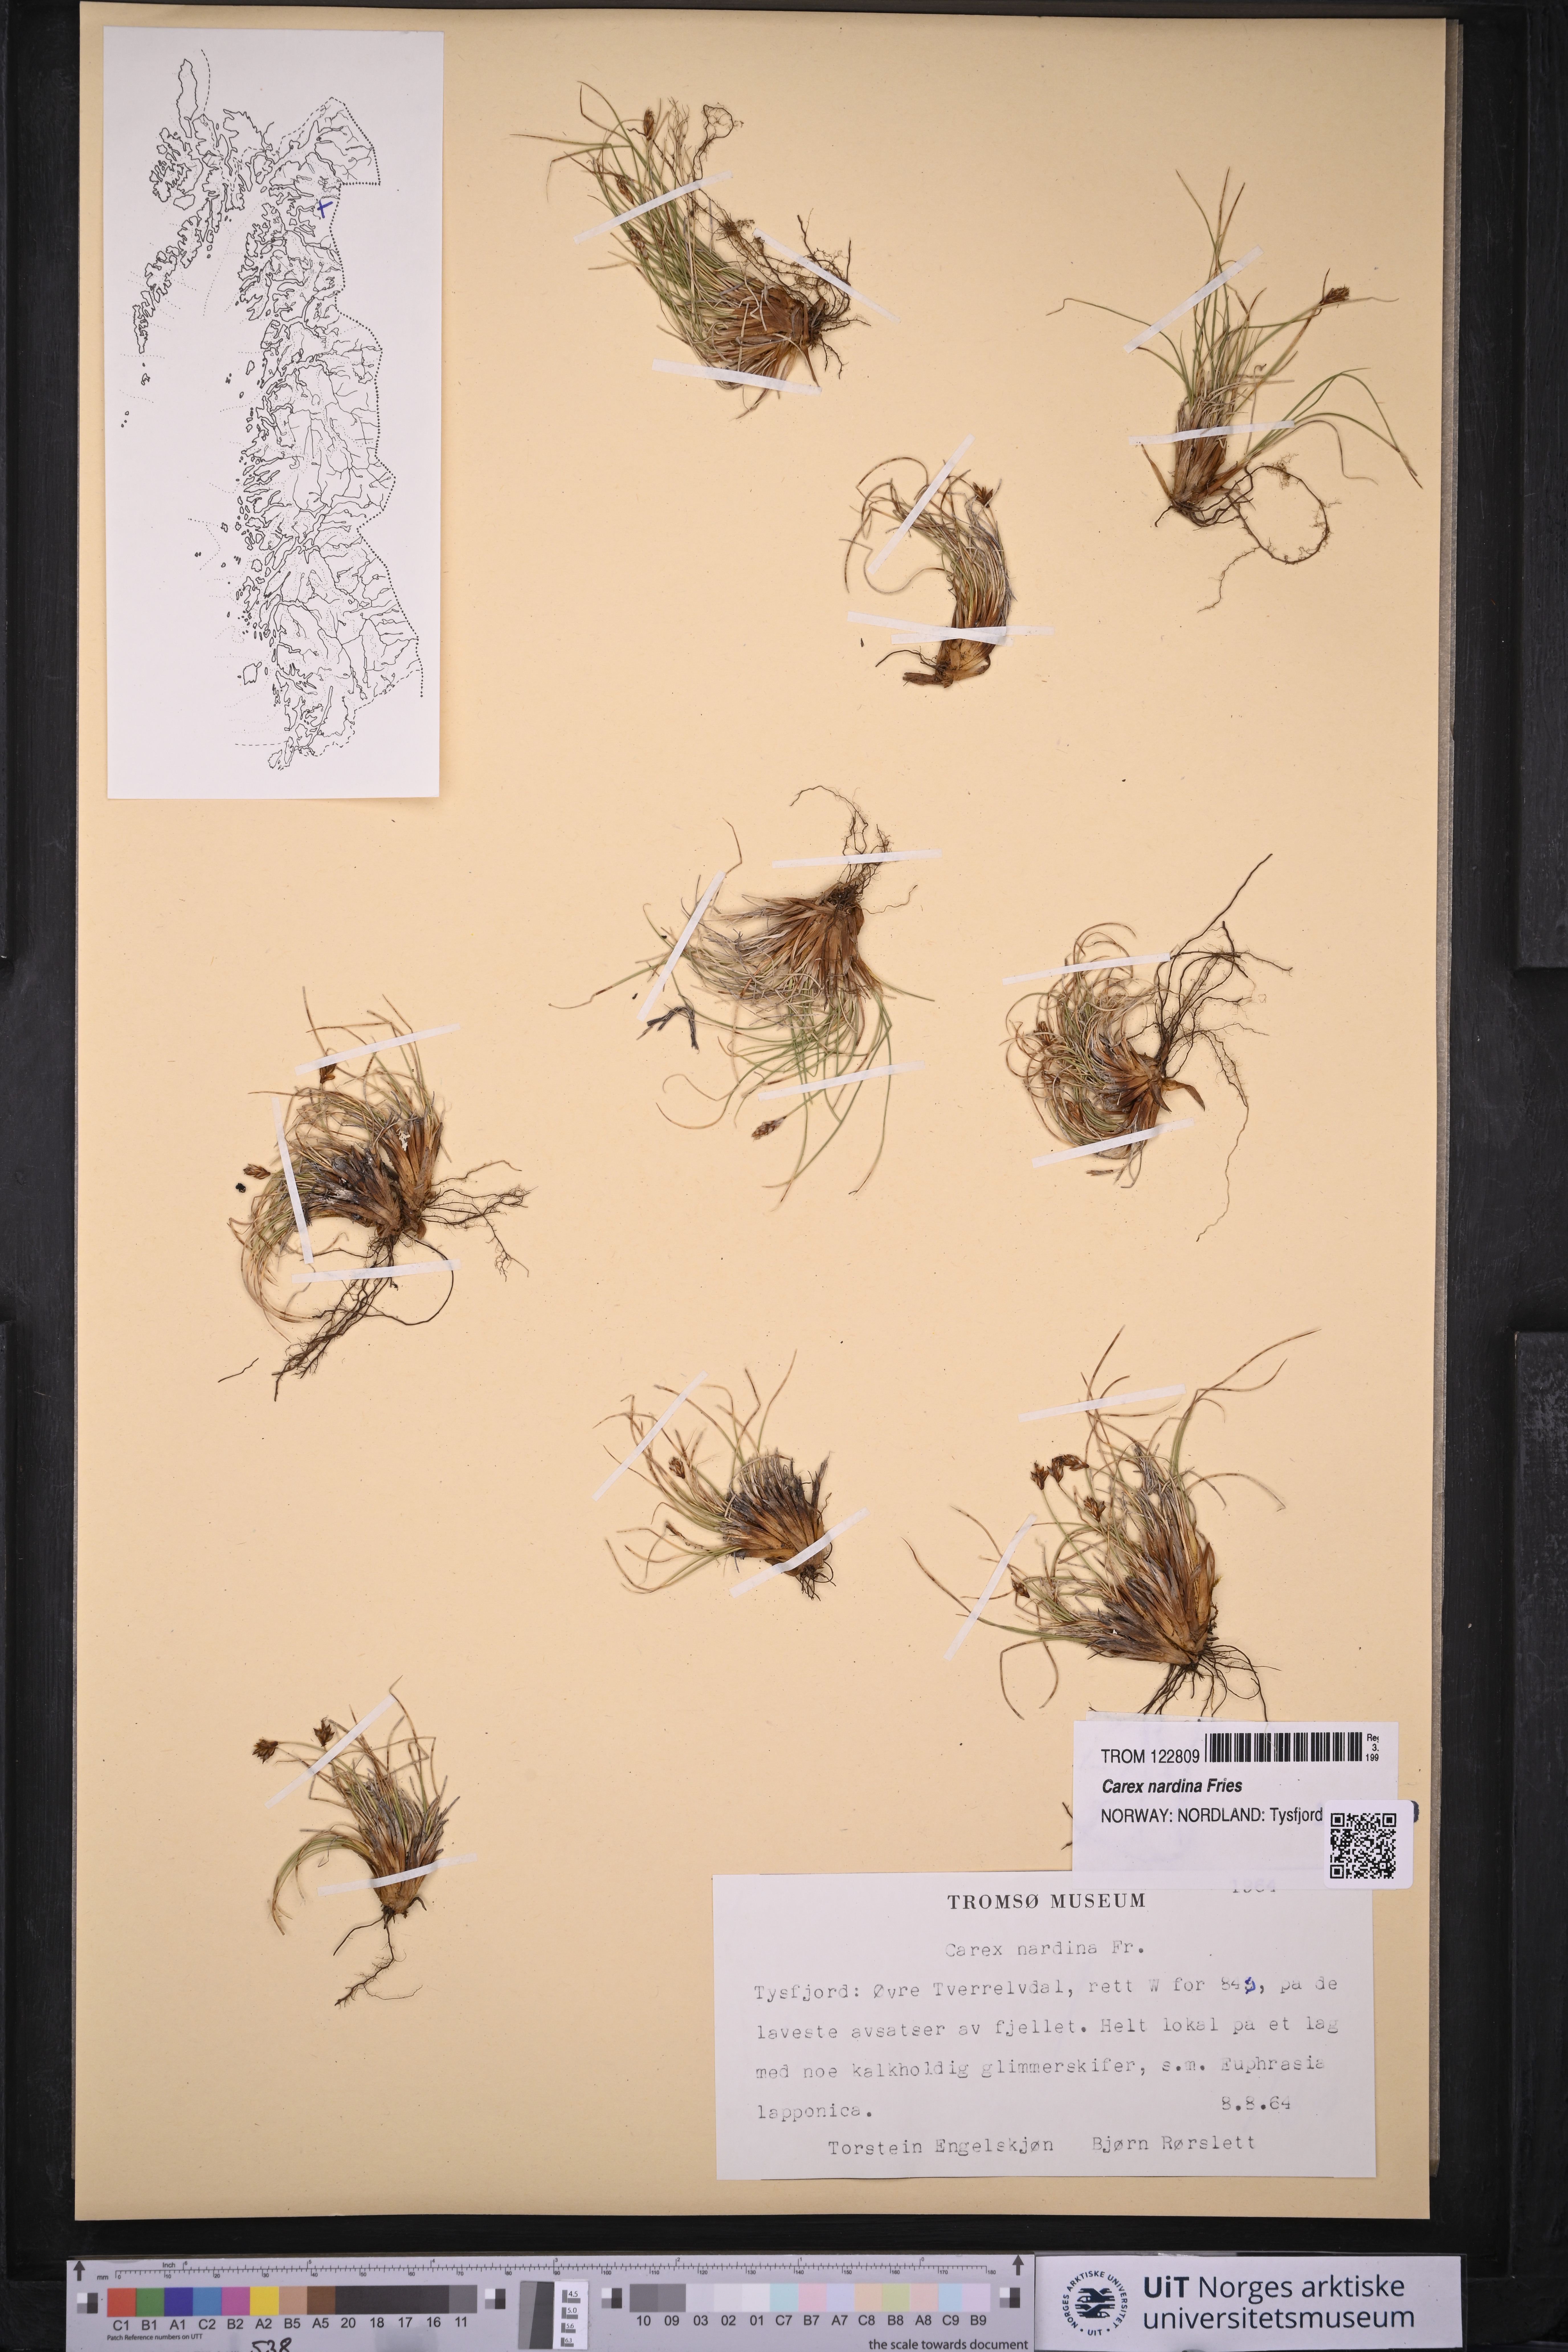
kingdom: Plantae
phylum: Tracheophyta
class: Liliopsida
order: Poales
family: Cyperaceae
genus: Carex
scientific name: Carex nardina
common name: Nard sedge
